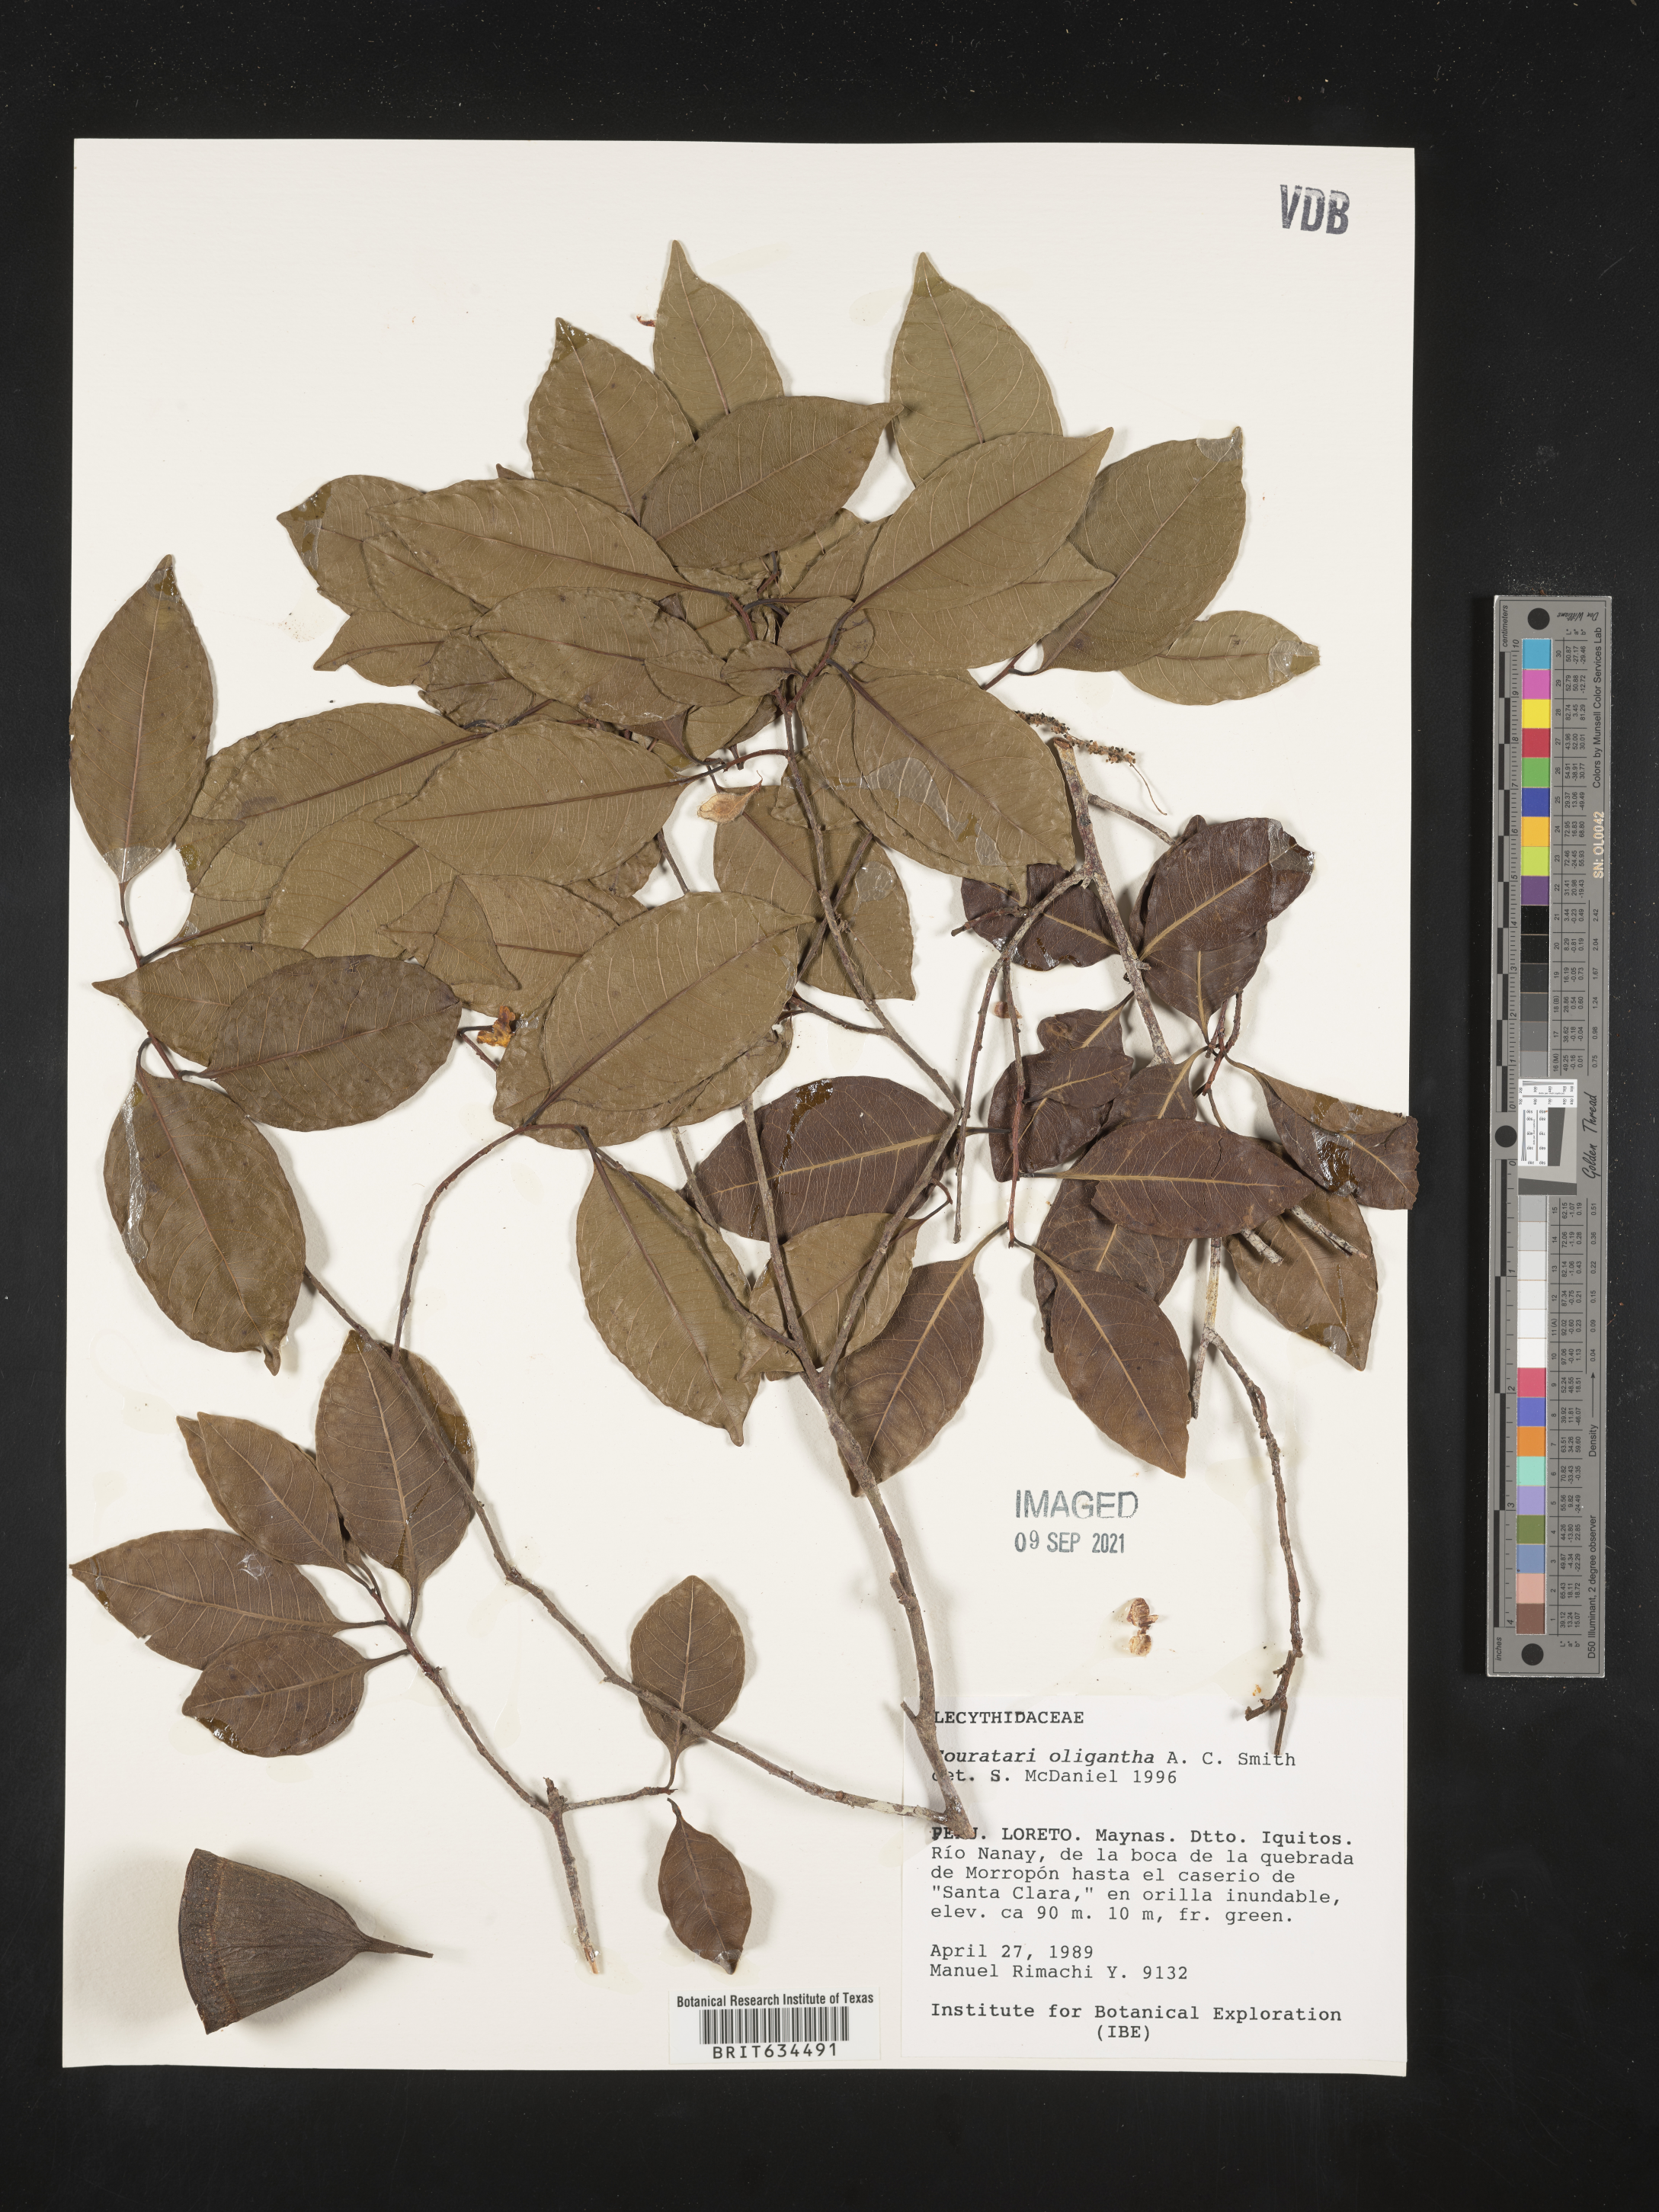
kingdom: Plantae
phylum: Tracheophyta
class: Magnoliopsida
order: Ericales
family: Lecythidaceae
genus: Couratari
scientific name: Couratari
